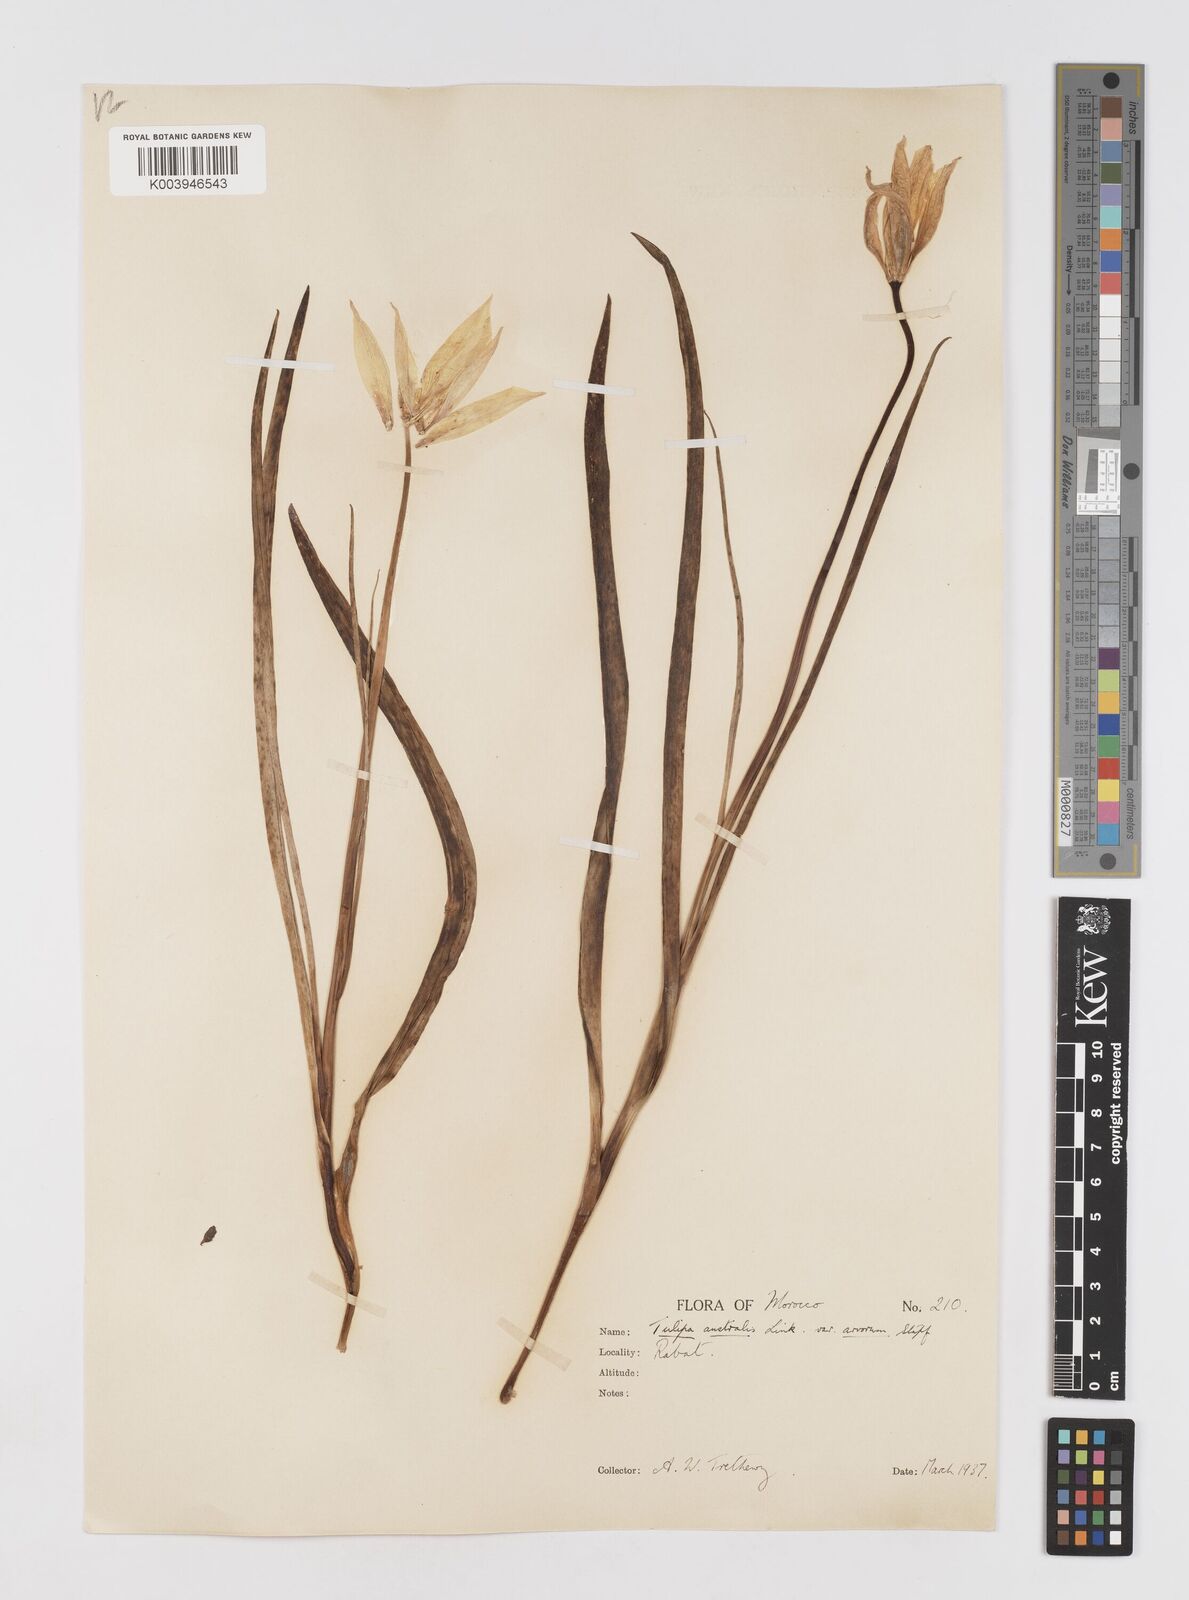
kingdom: Plantae
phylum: Tracheophyta
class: Liliopsida
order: Liliales
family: Liliaceae
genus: Tulipa
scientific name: Tulipa sylvestris
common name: Wild tulip
